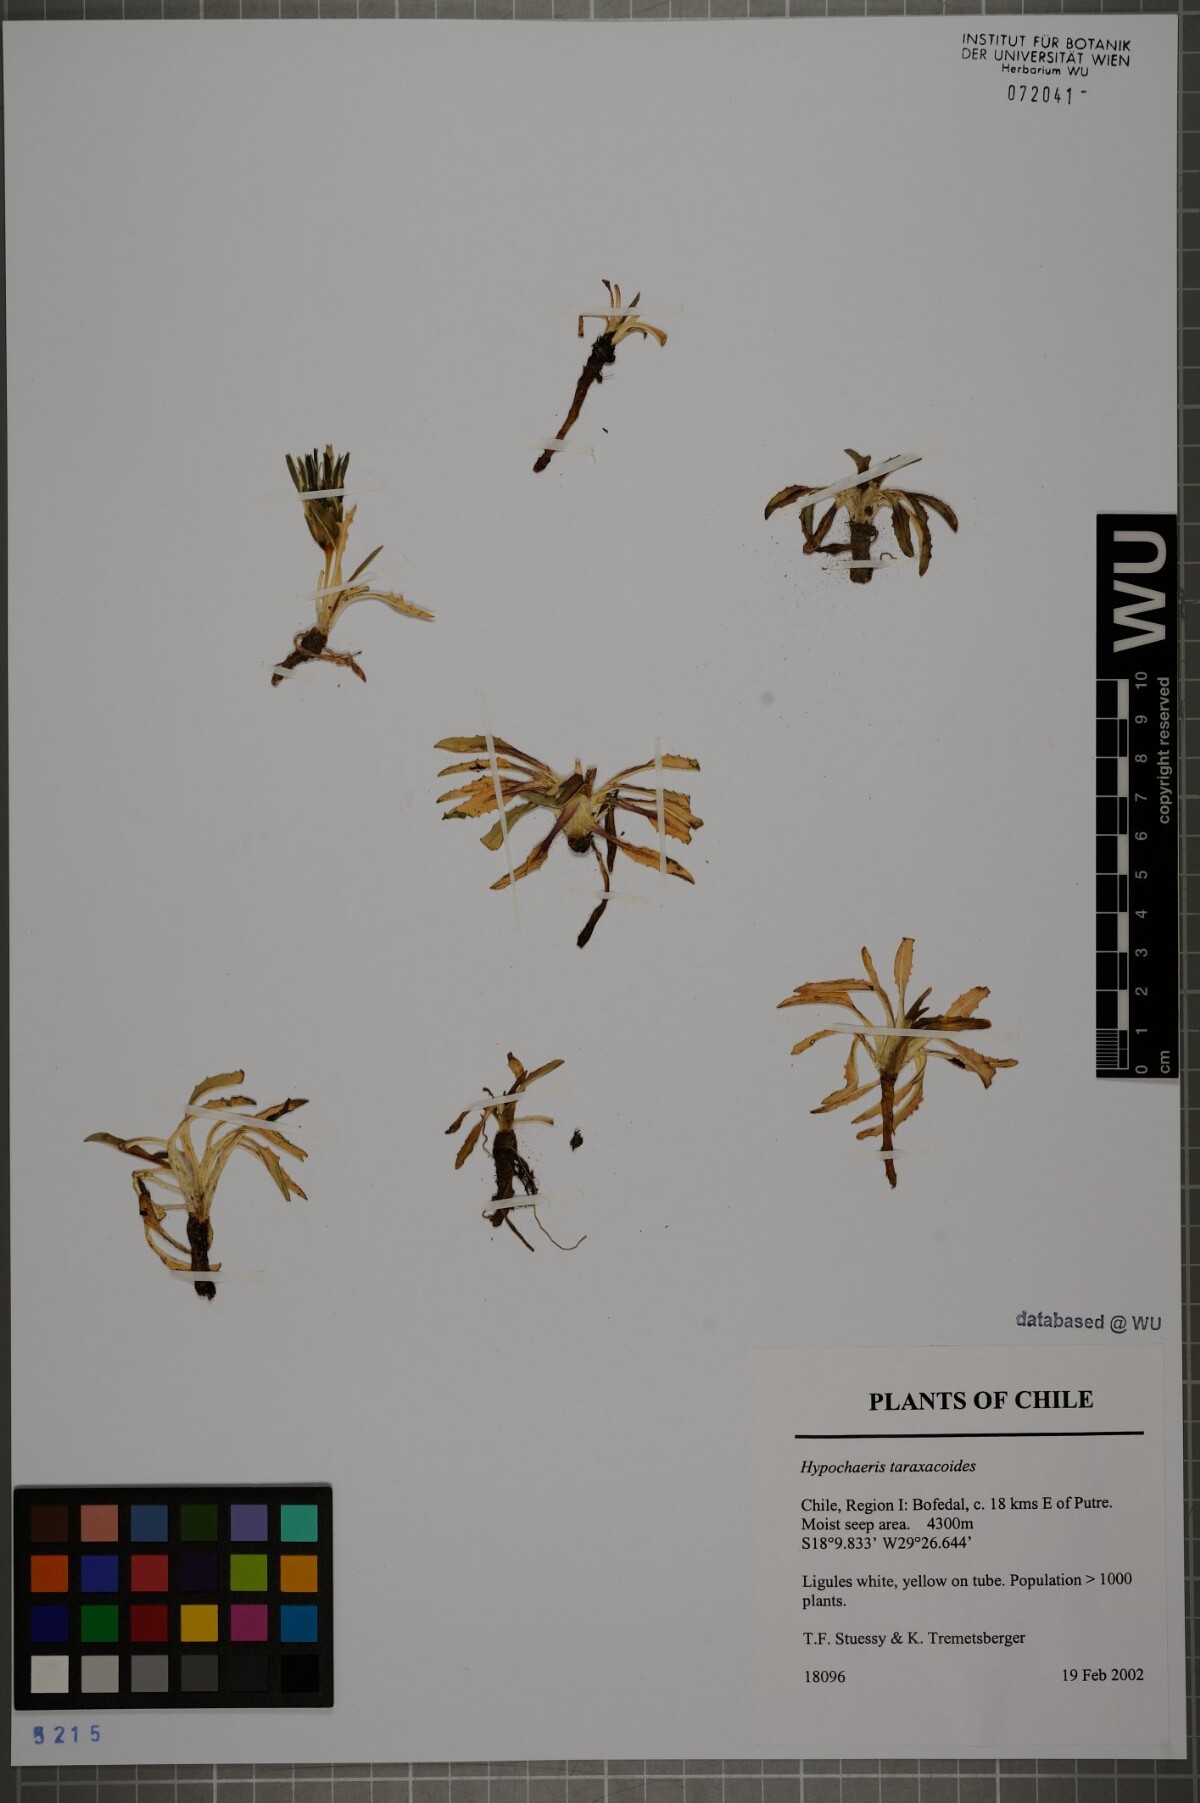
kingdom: Plantae
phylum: Tracheophyta
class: Magnoliopsida
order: Asterales
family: Asteraceae
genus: Hypochaeris
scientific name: Hypochaeris taraxacoides
